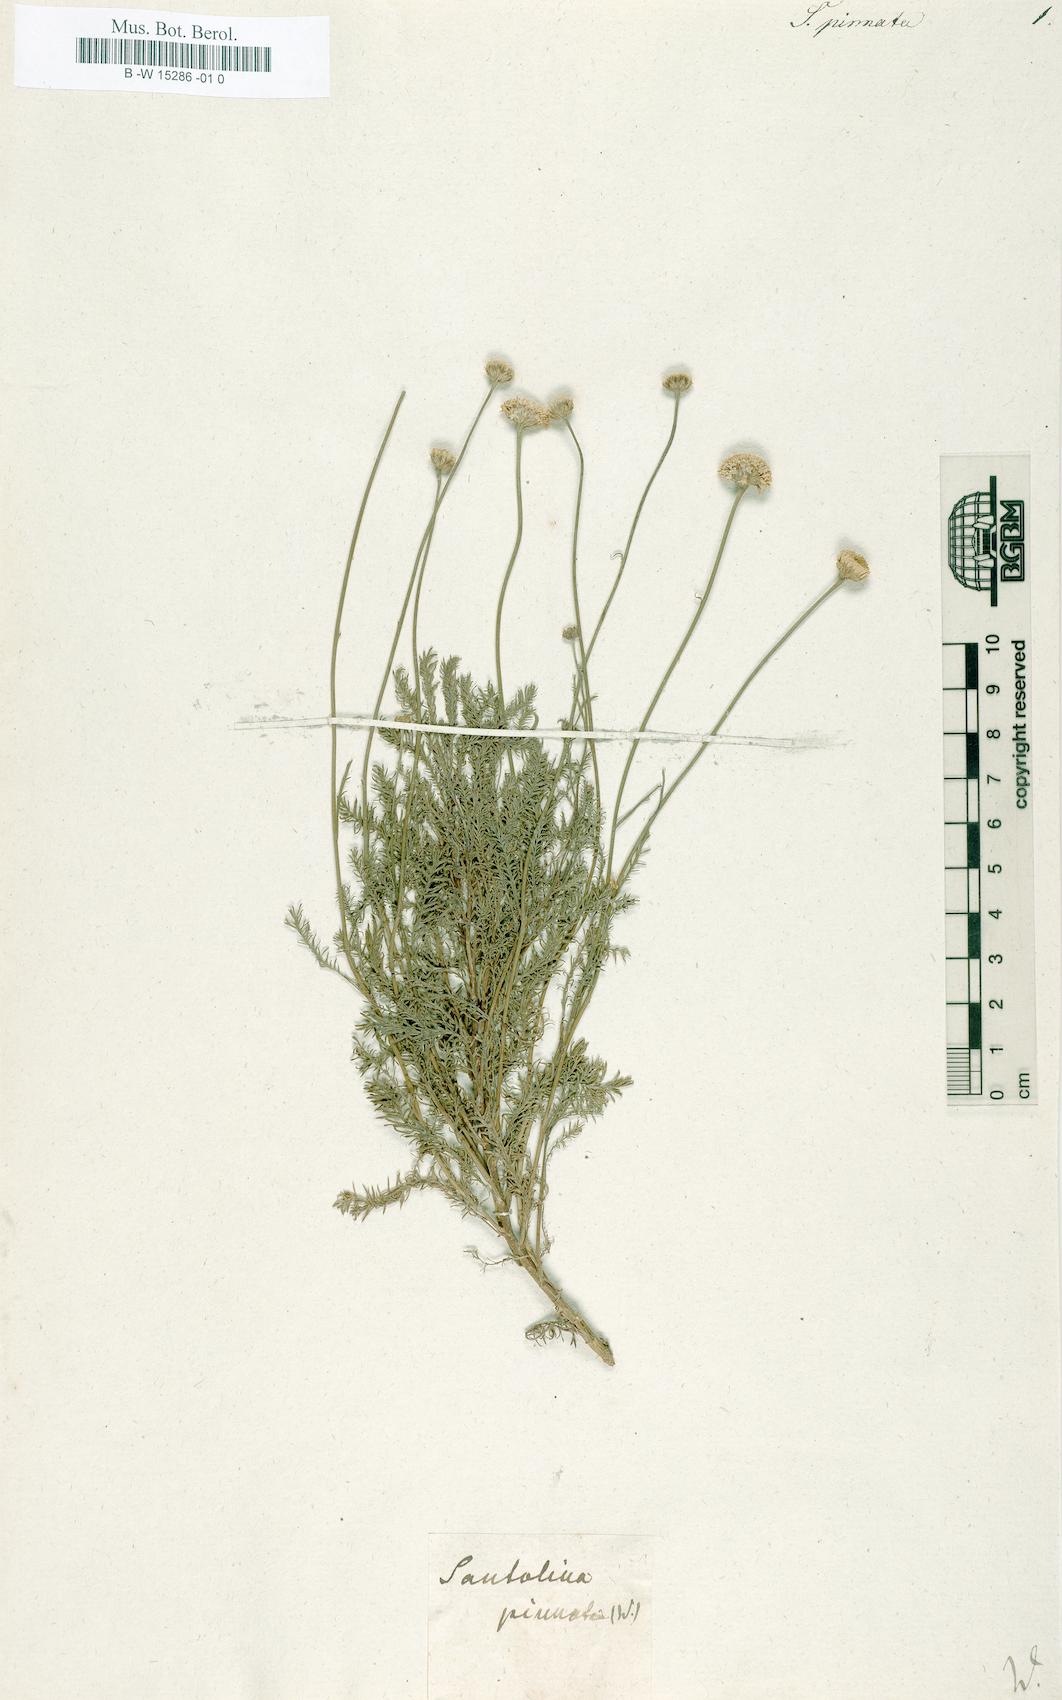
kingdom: Plantae
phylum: Tracheophyta
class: Magnoliopsida
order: Asterales
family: Asteraceae
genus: Santolina
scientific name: Santolina pinnata
